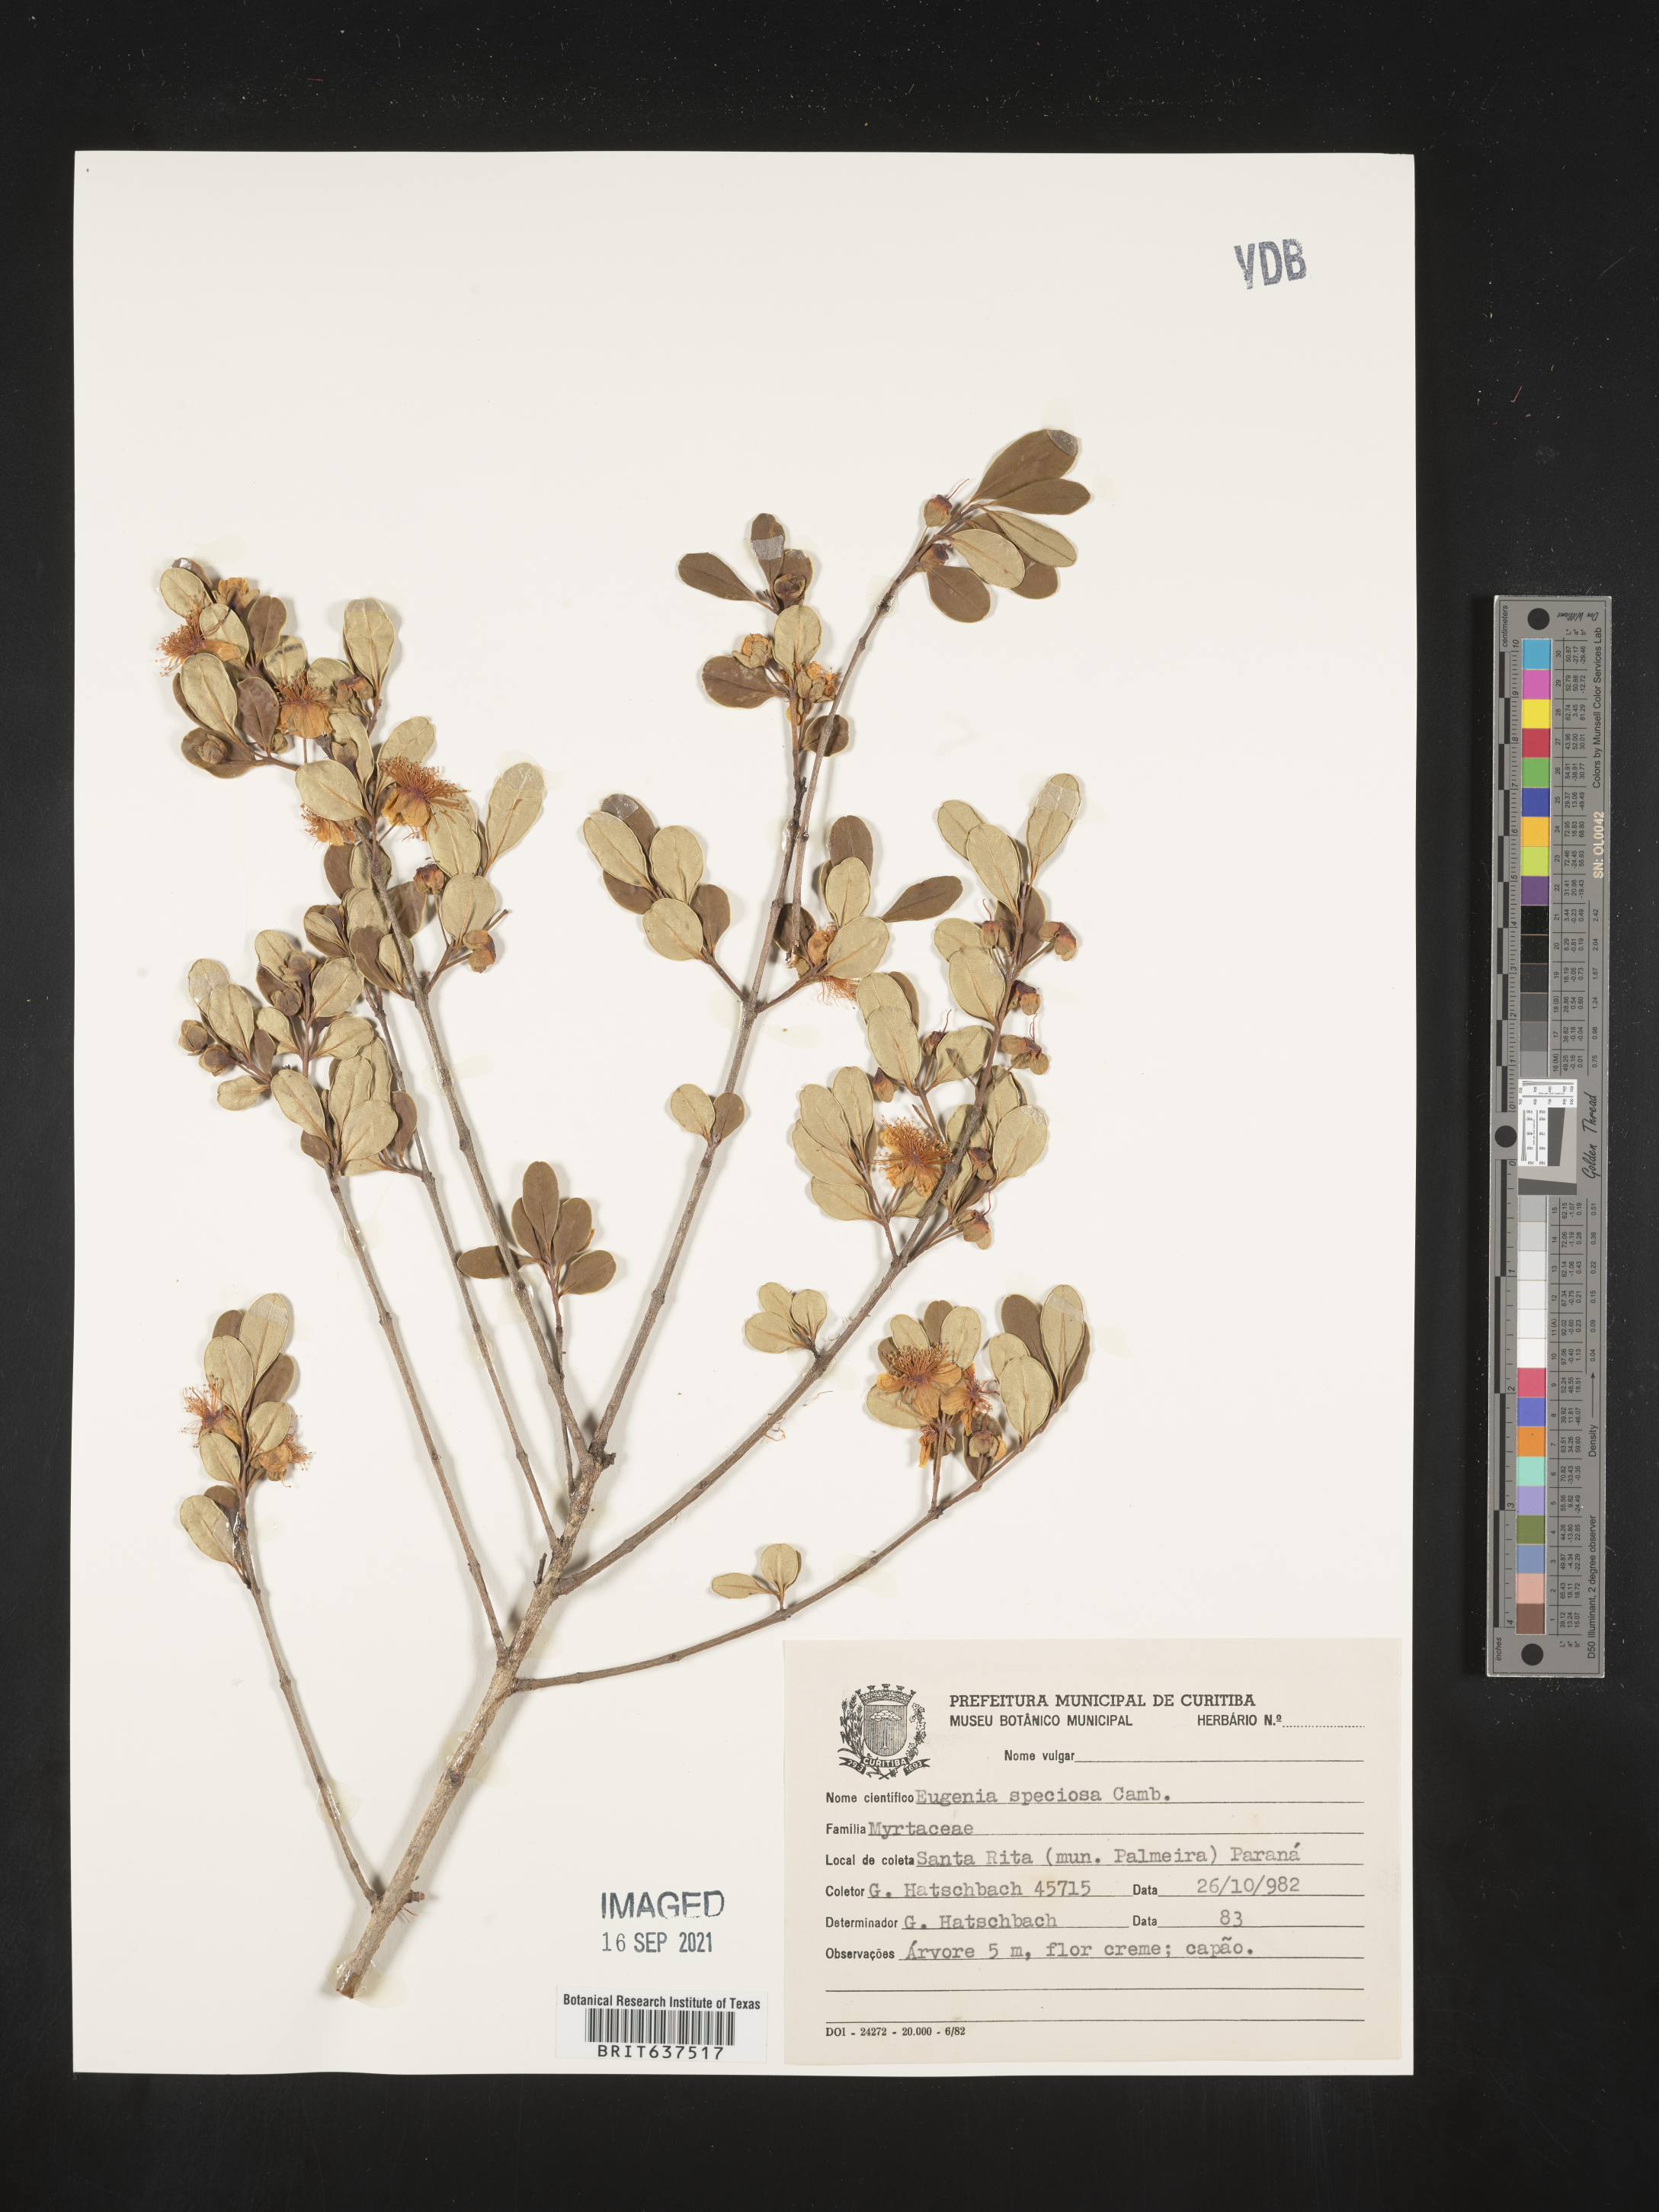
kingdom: Plantae
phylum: Tracheophyta
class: Magnoliopsida
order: Myrtales
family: Myrtaceae
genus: Eugenia
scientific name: Eugenia
